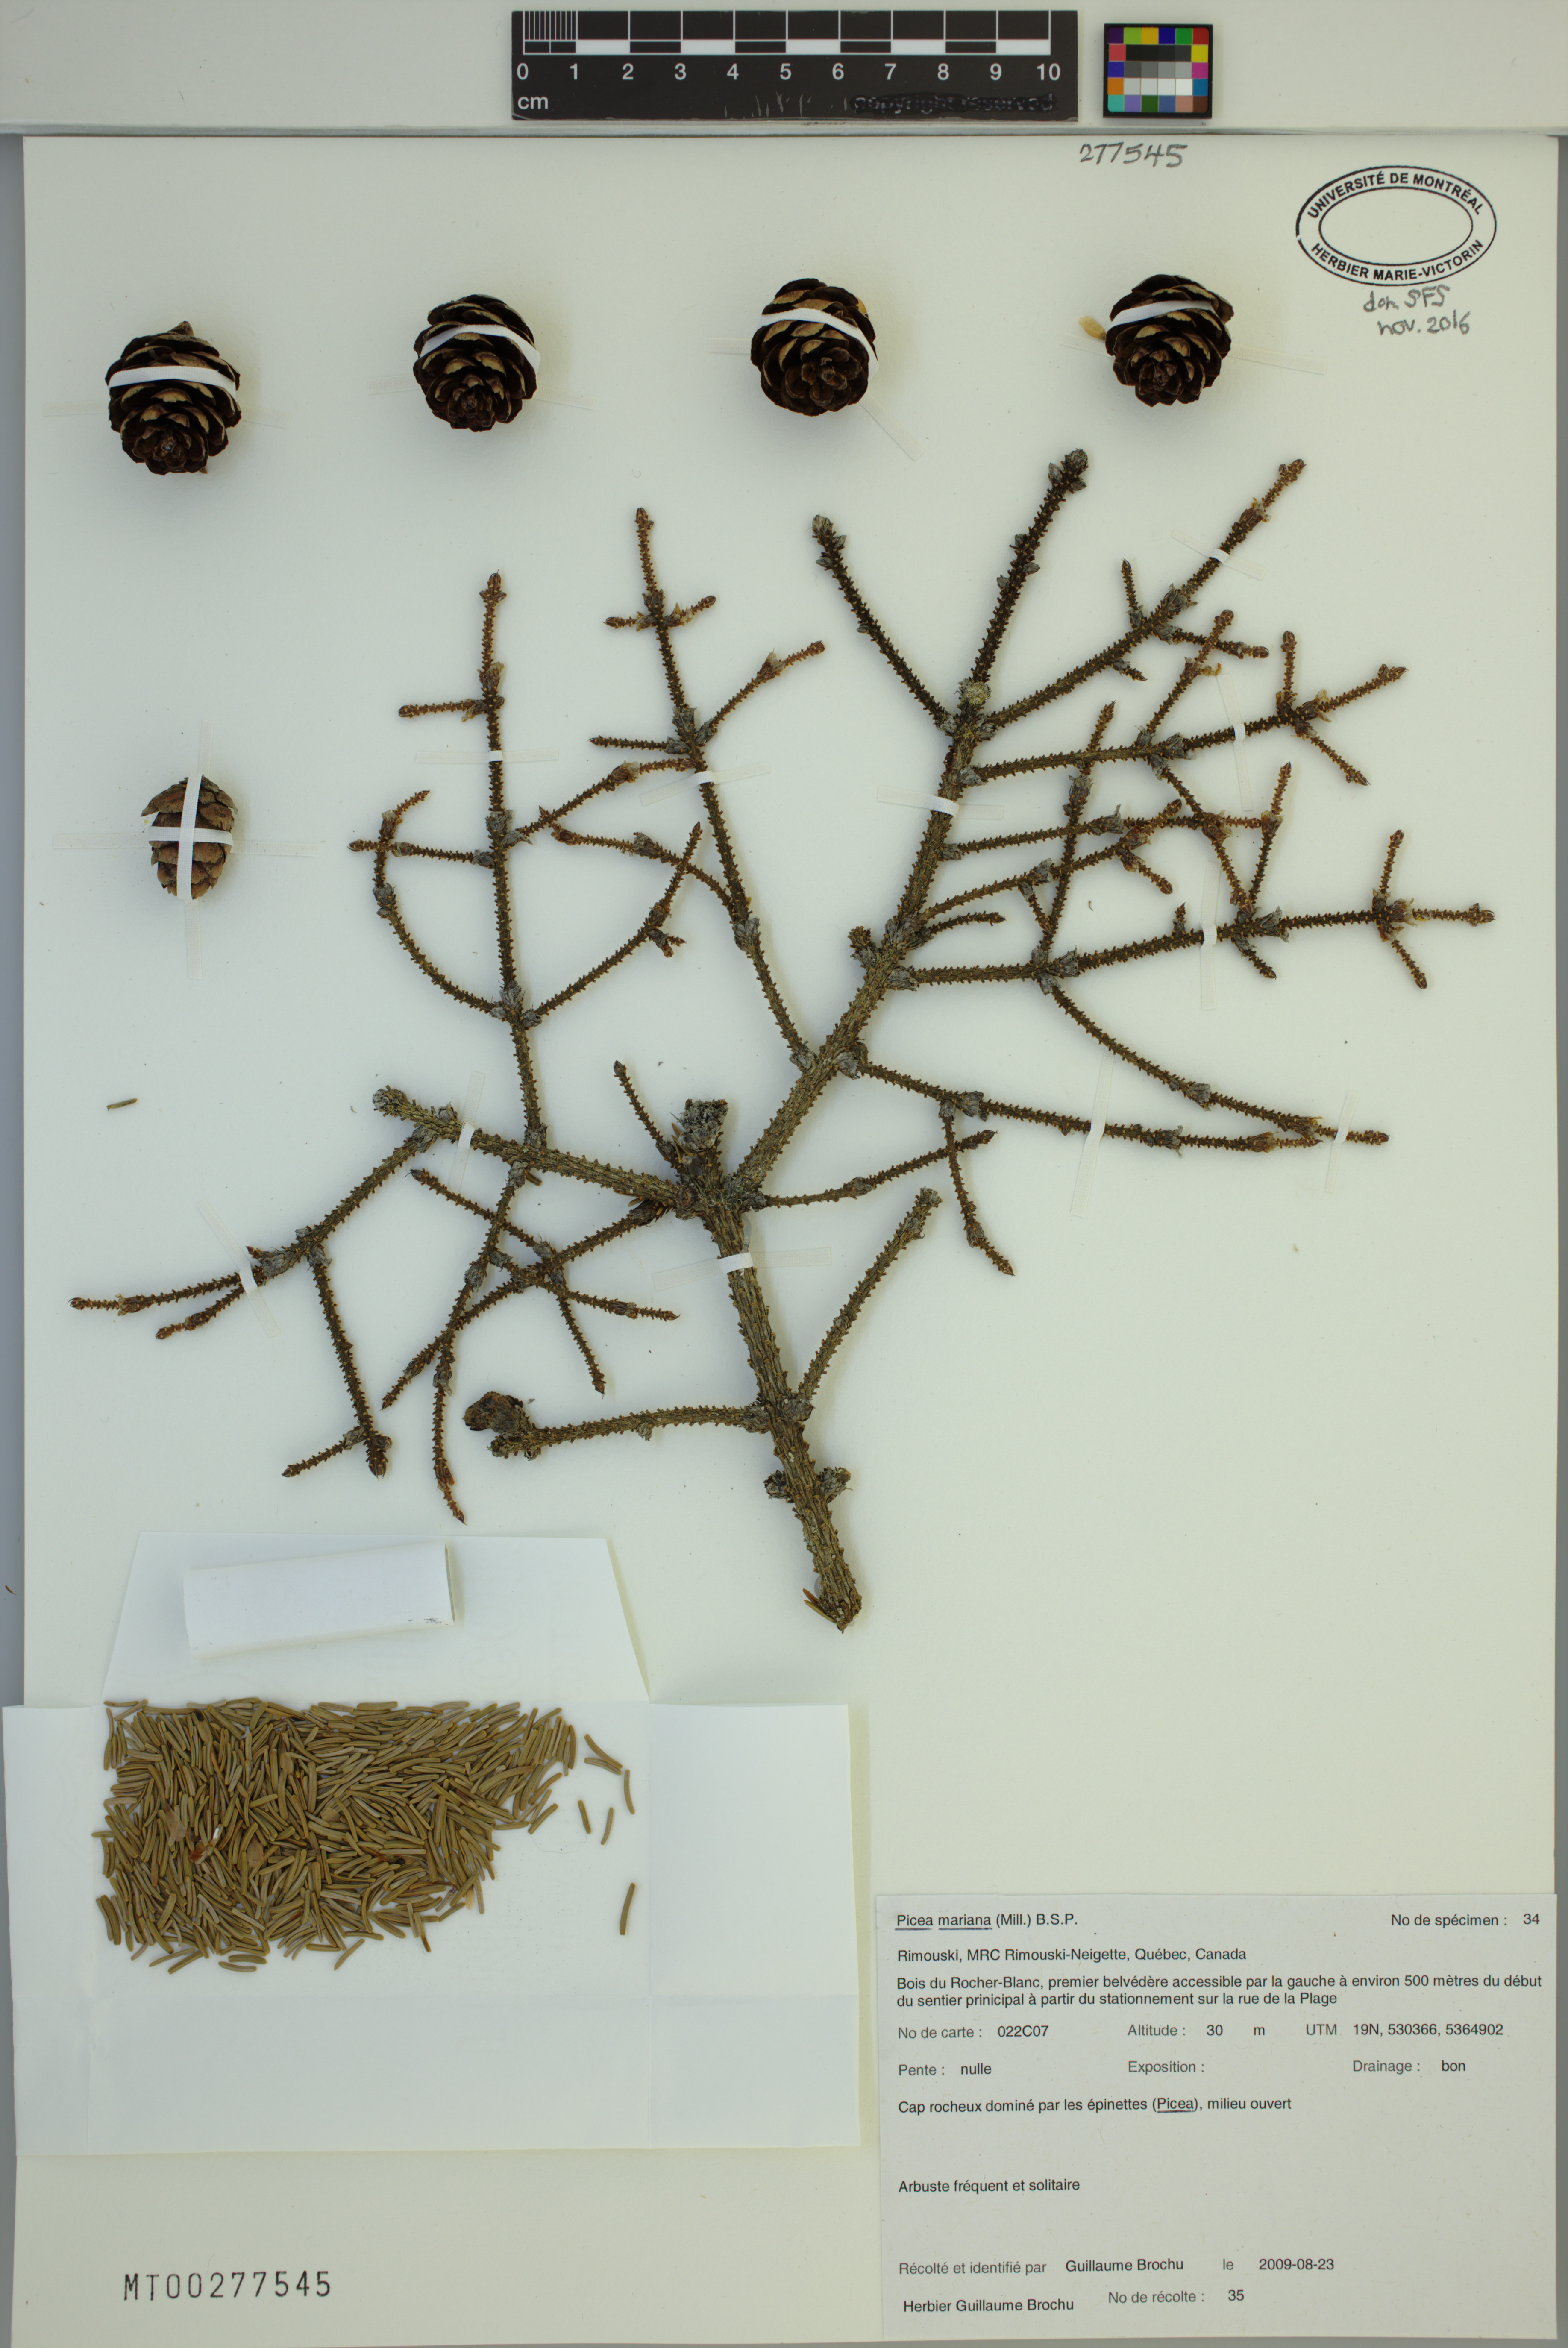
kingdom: Plantae
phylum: Tracheophyta
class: Pinopsida
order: Pinales
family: Pinaceae
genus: Picea
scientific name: Picea mariana
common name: Black spruce
